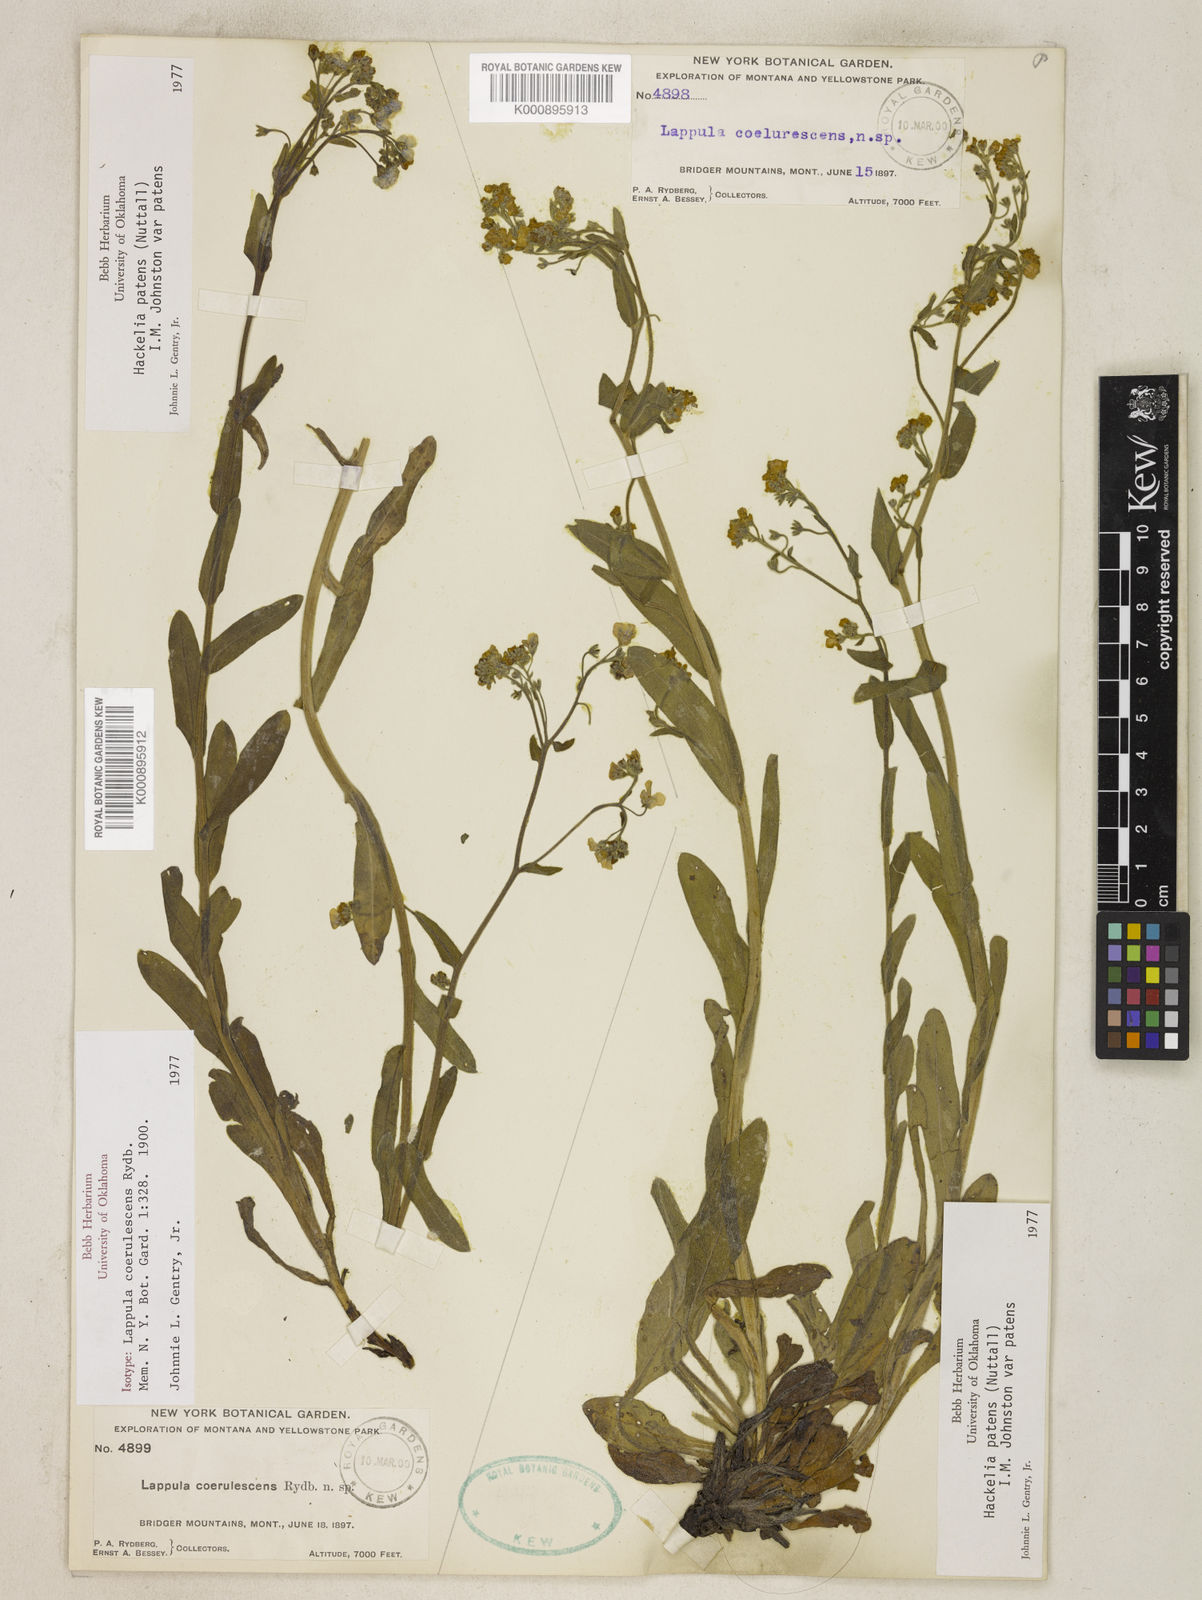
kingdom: Plantae
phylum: Tracheophyta
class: Magnoliopsida
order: Boraginales
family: Boraginaceae
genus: Hackelia
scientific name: Hackelia patens
